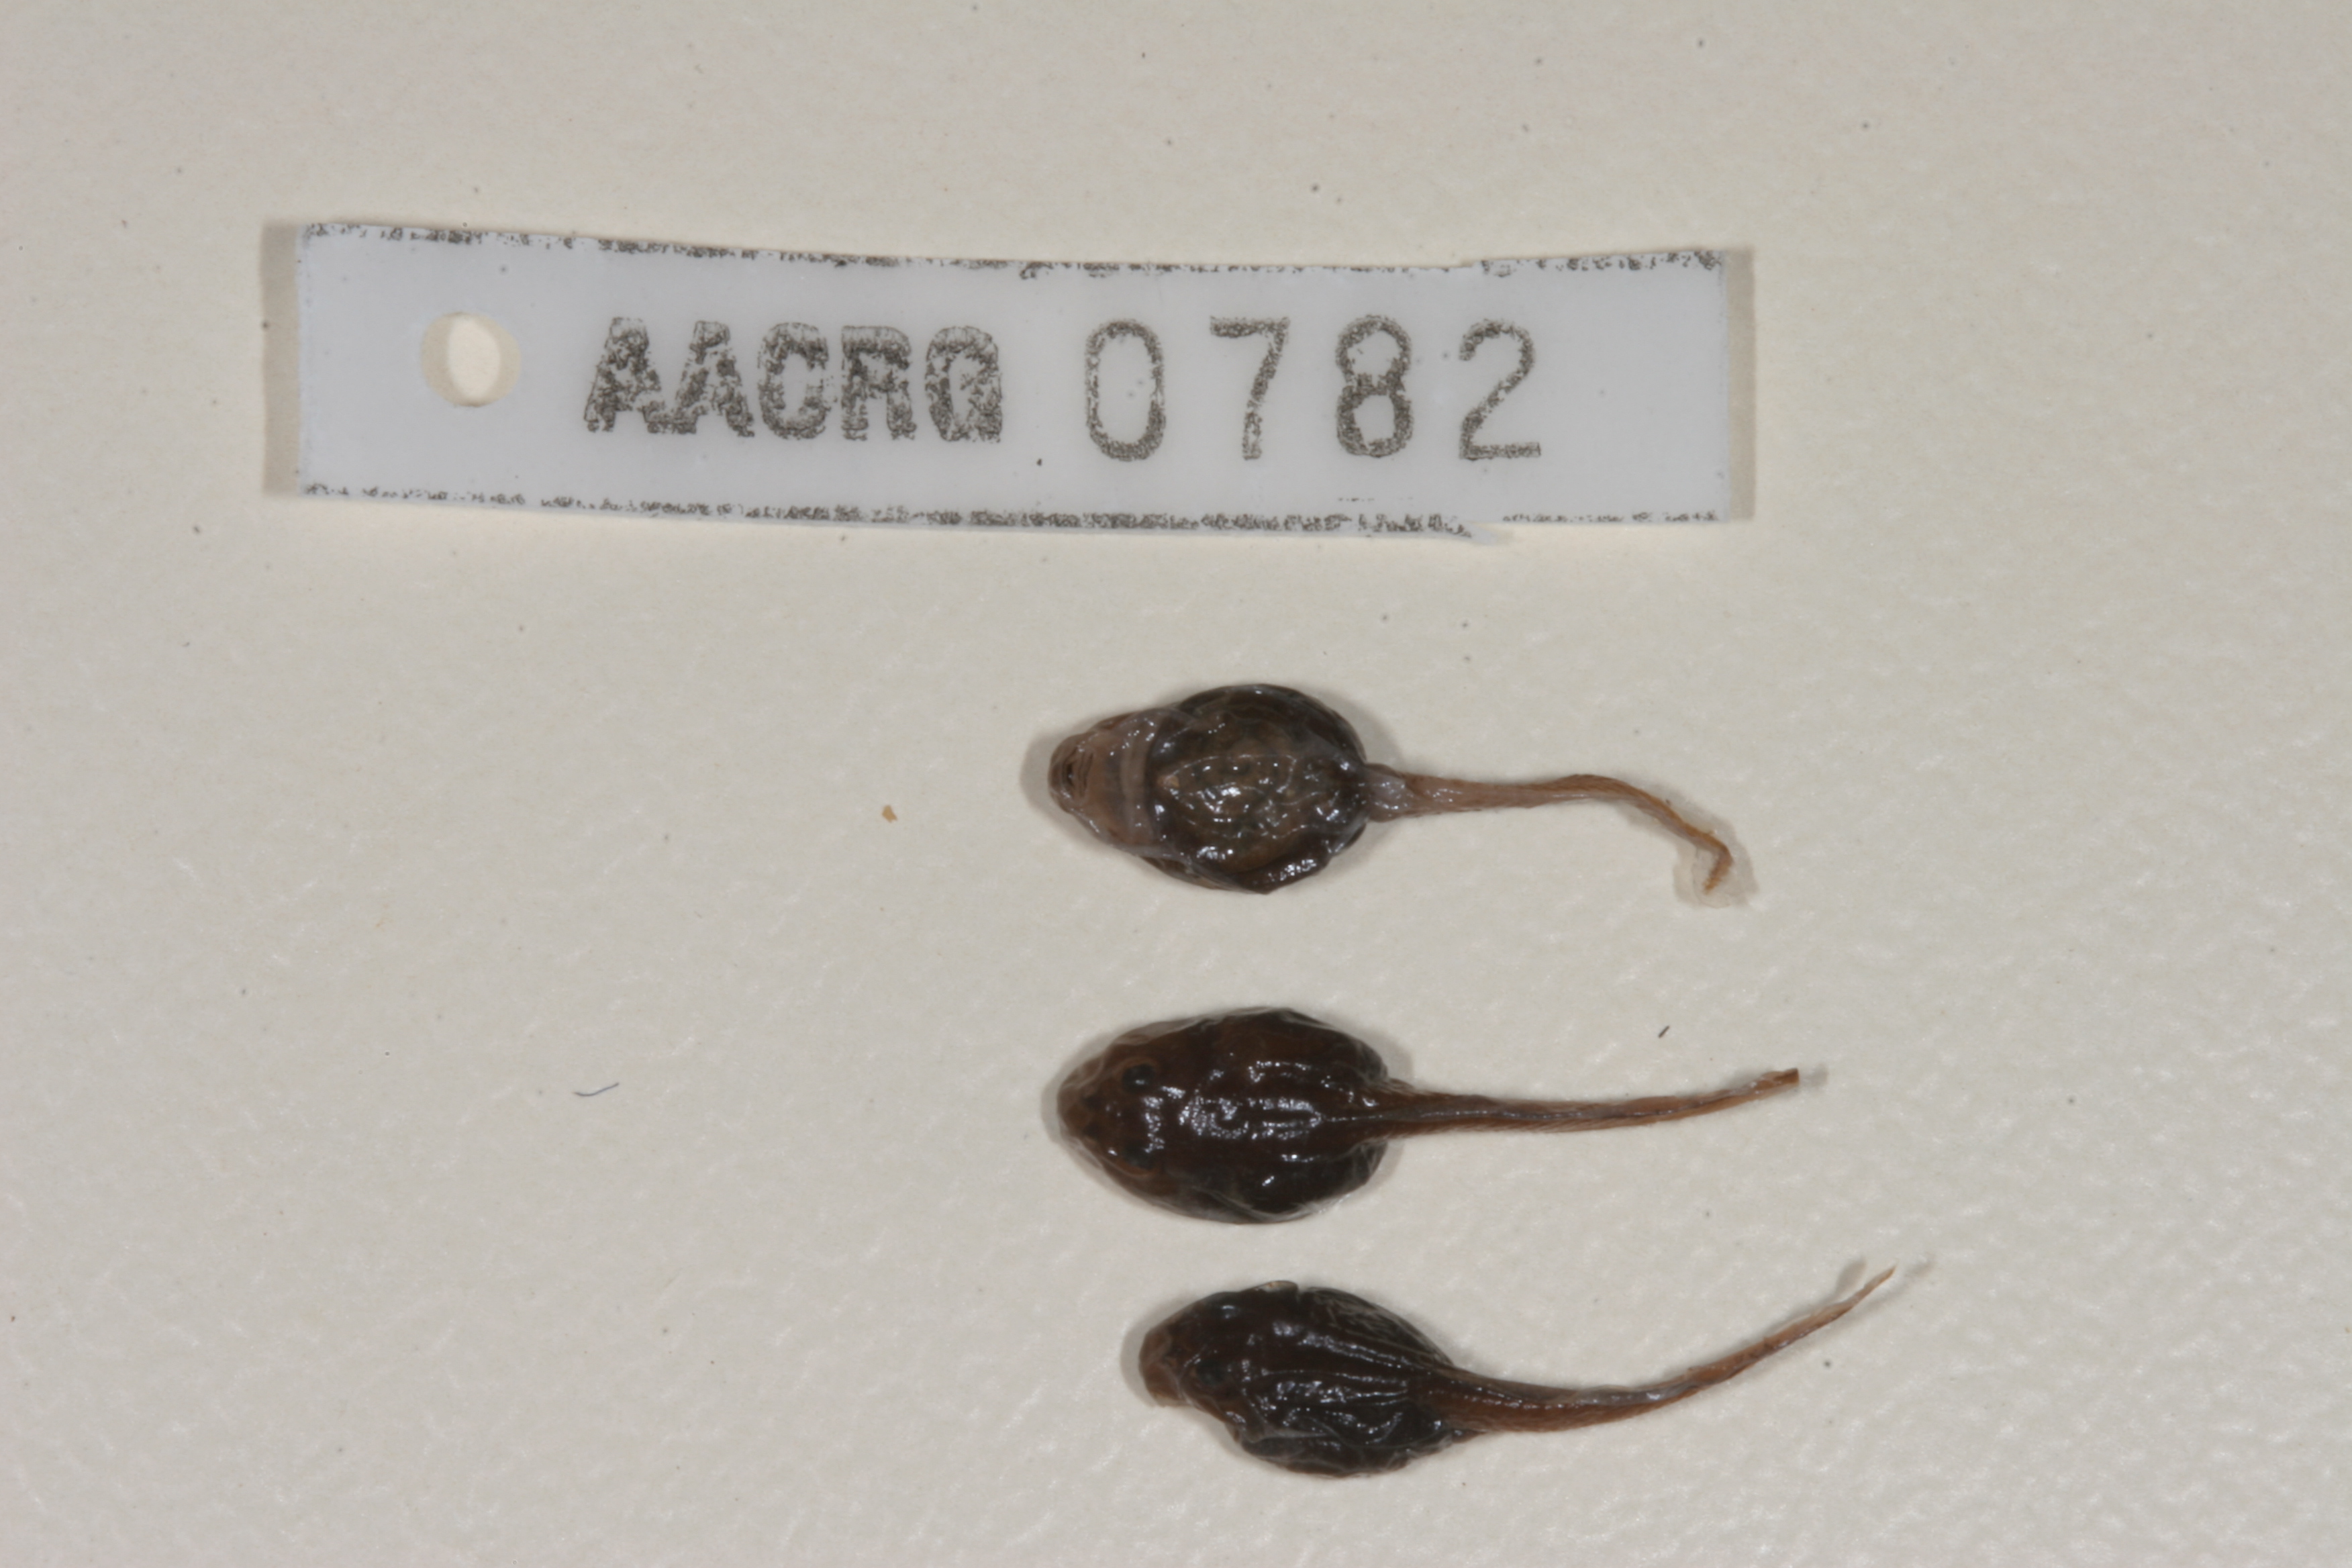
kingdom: Animalia
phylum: Chordata
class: Amphibia
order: Anura
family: Bufonidae
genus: Poyntonophrynus
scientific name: Poyntonophrynus hoeschi
